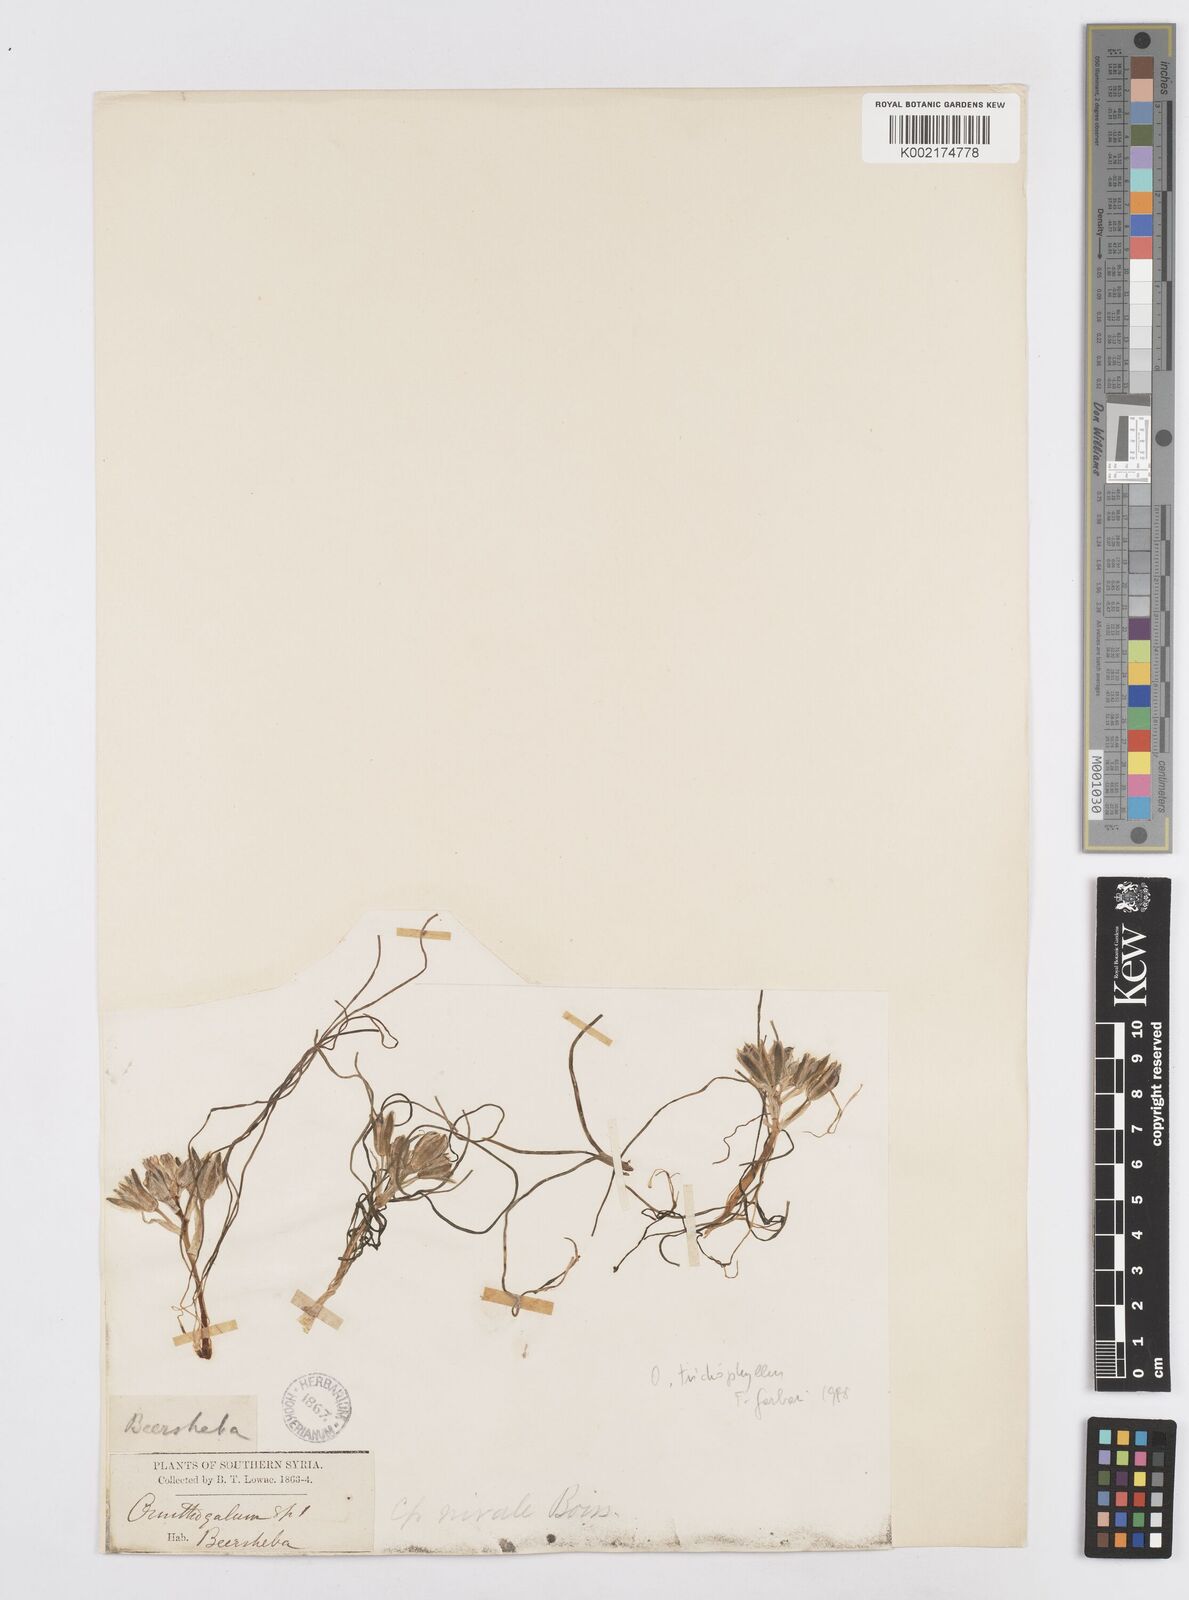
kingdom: Plantae
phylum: Tracheophyta
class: Liliopsida
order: Asparagales
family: Asparagaceae
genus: Ornithogalum
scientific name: Ornithogalum trichophyllum
